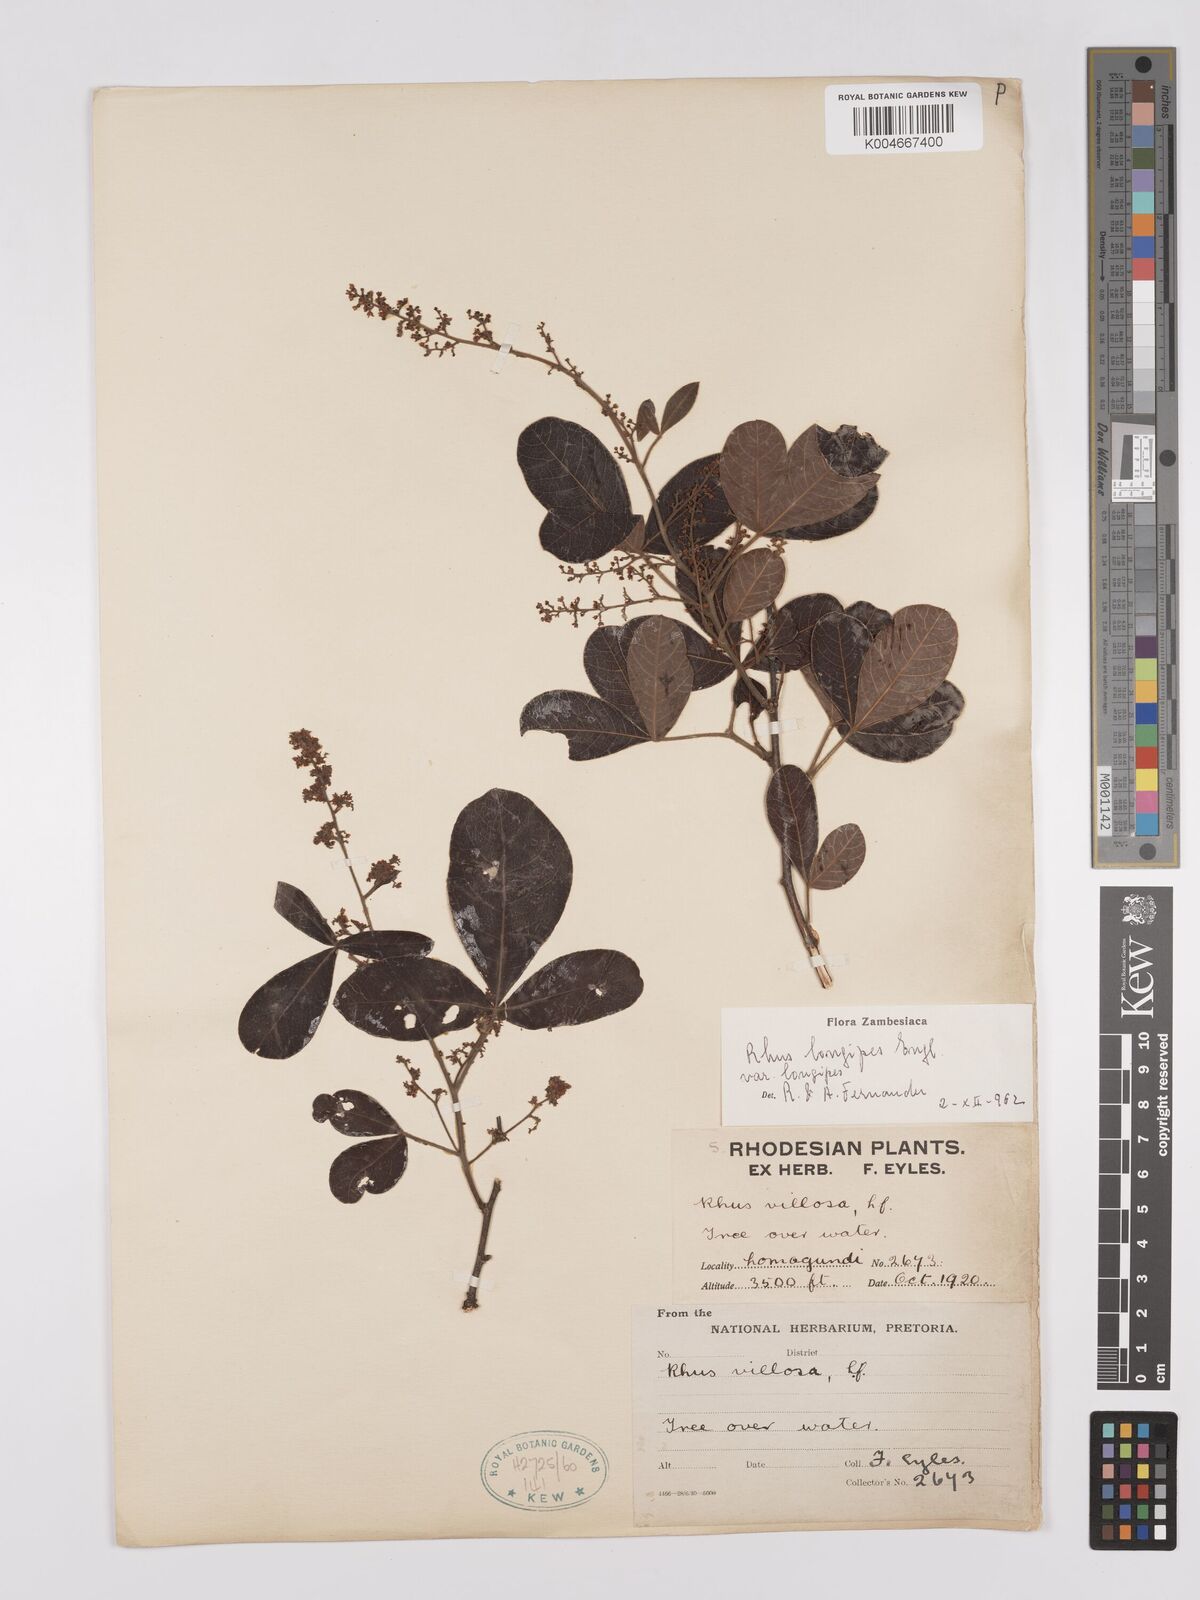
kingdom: Plantae
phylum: Tracheophyta
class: Magnoliopsida
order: Sapindales
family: Anacardiaceae
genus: Searsia
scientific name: Searsia longipes
